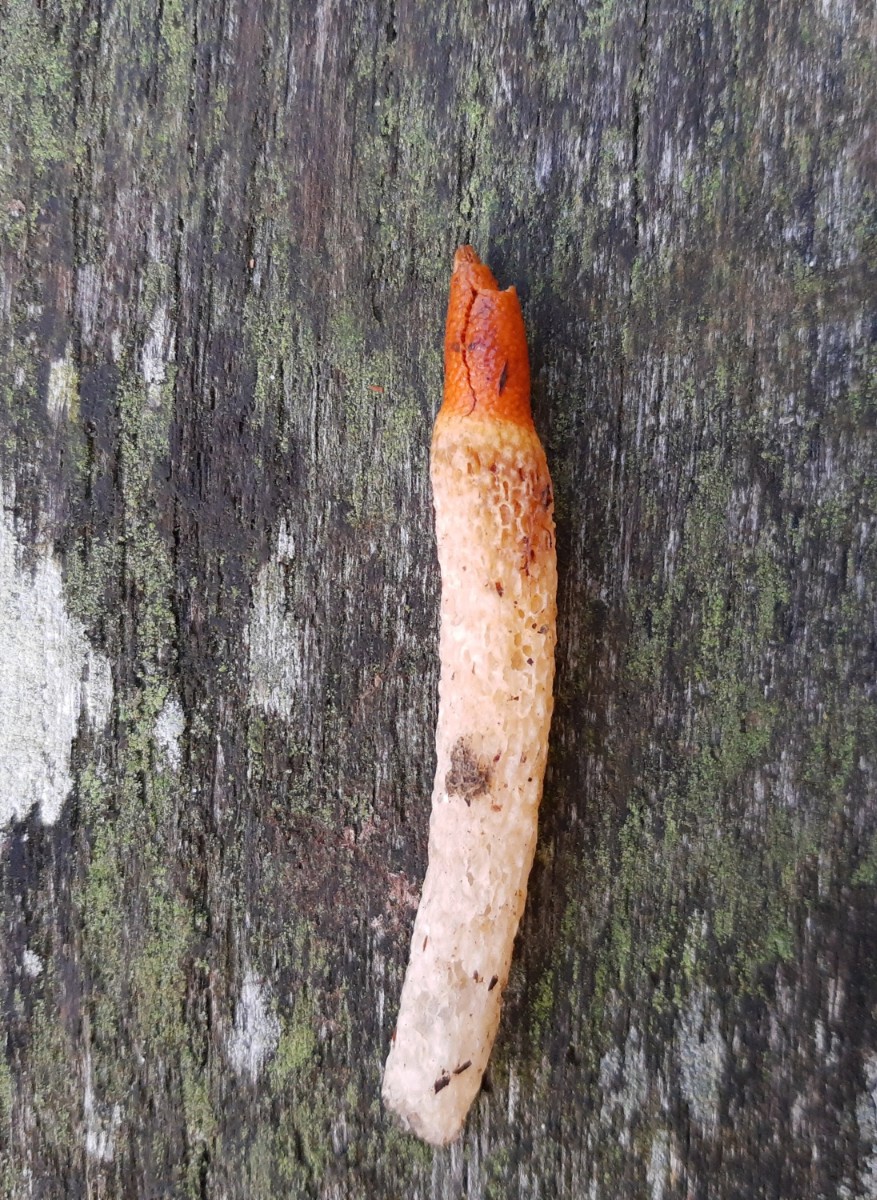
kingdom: Fungi
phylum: Basidiomycota
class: Agaricomycetes
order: Phallales
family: Phallaceae
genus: Mutinus
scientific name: Mutinus caninus
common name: hunde-stinksvamp
